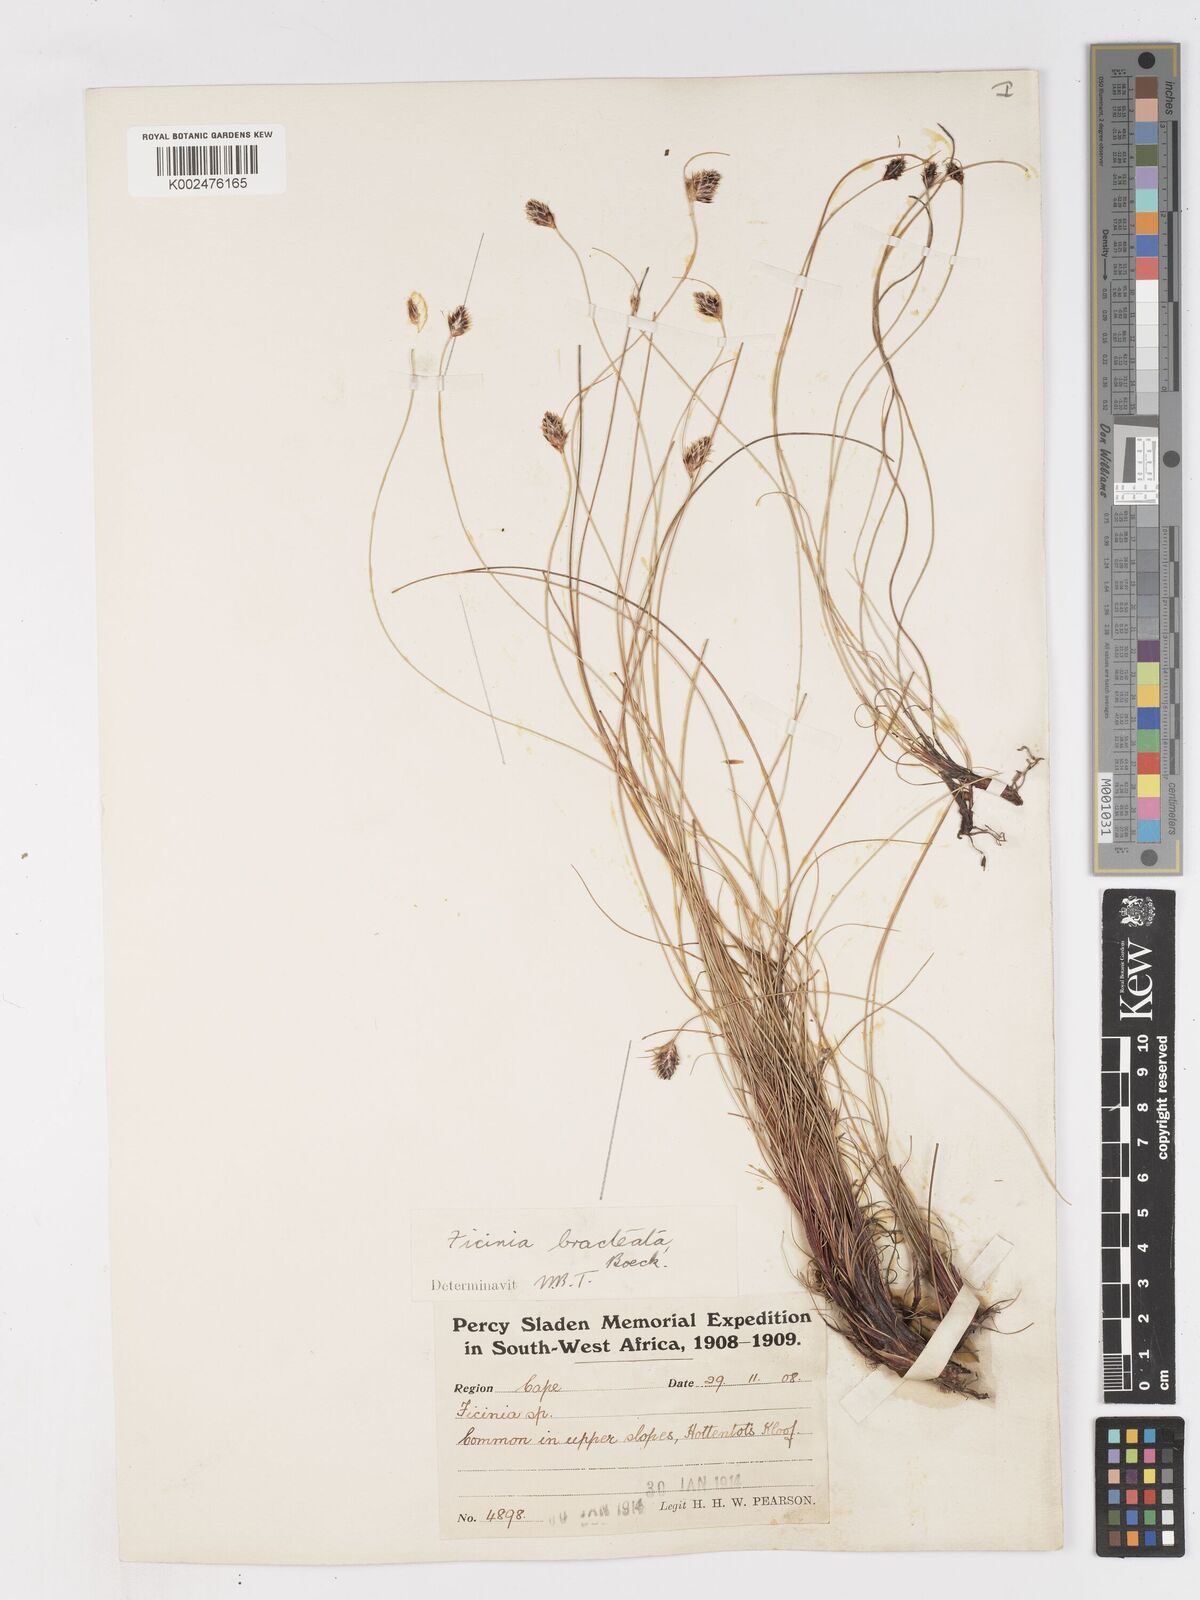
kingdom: Plantae
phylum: Tracheophyta
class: Liliopsida
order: Poales
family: Cyperaceae
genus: Ficinia
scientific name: Ficinia nigrescens
